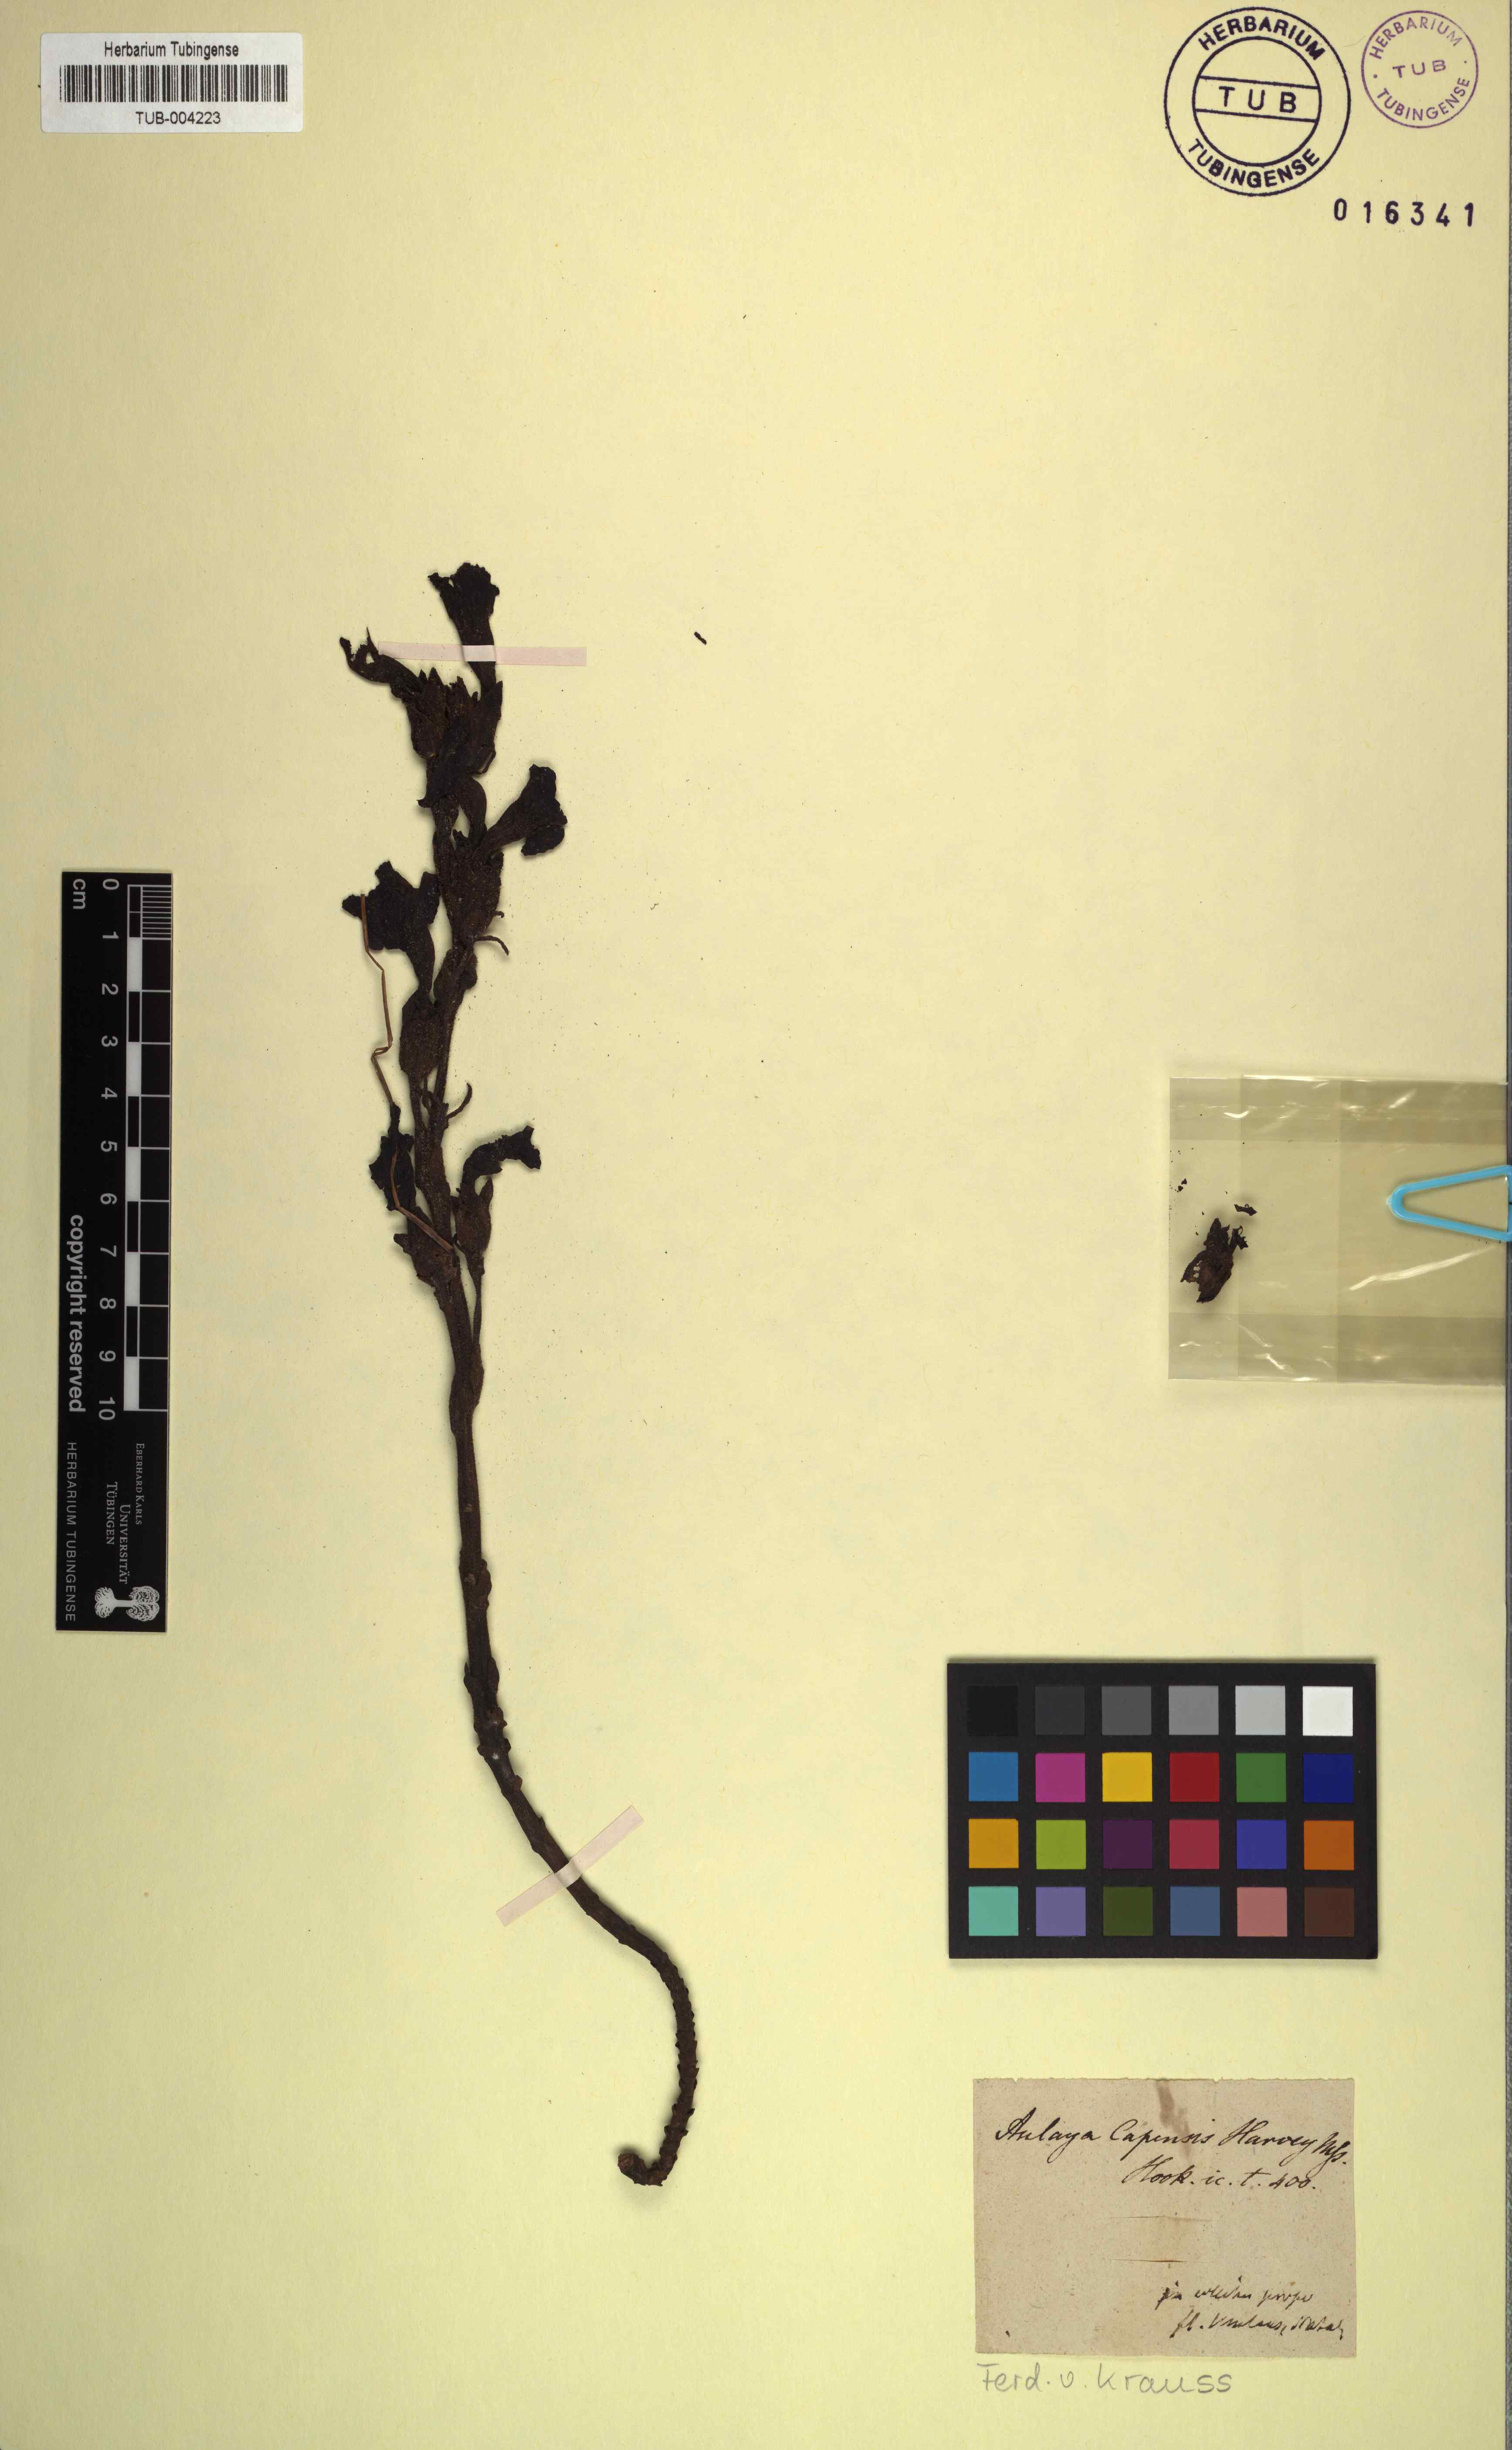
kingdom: Plantae
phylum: Tracheophyta
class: Magnoliopsida
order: Lamiales
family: Orobanchaceae
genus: Harveya
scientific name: Harveya capensis
